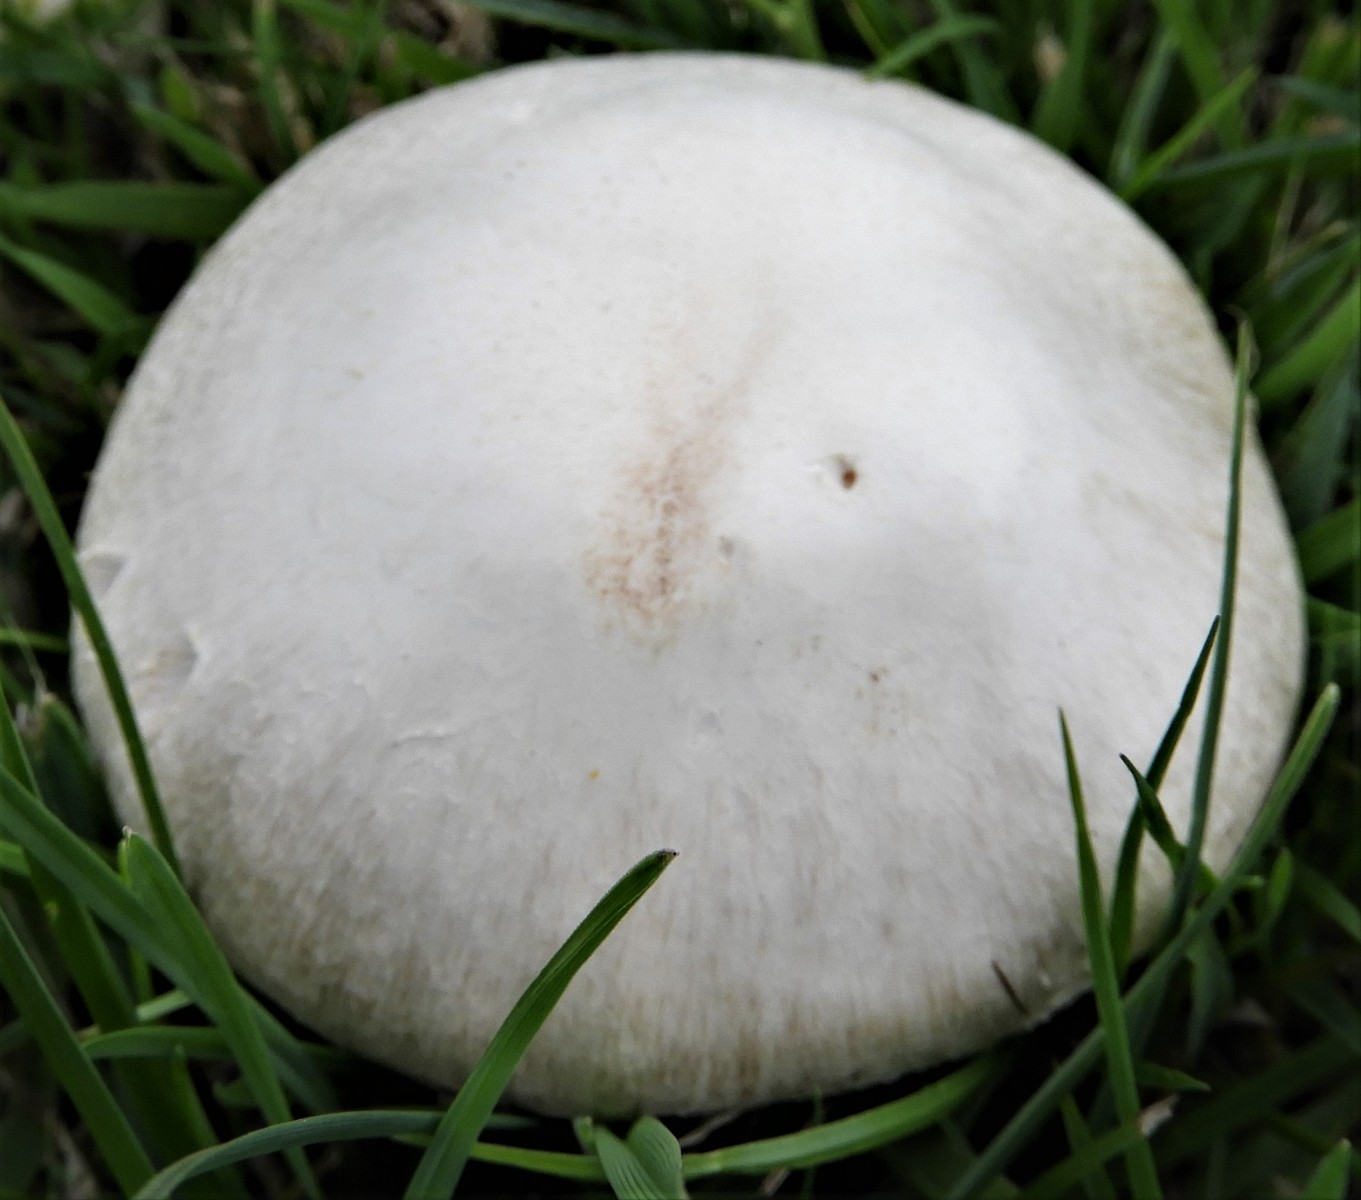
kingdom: Fungi
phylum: Basidiomycota
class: Agaricomycetes
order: Agaricales
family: Agaricaceae
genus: Agaricus
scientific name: Agaricus campestris
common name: mark-champignon
